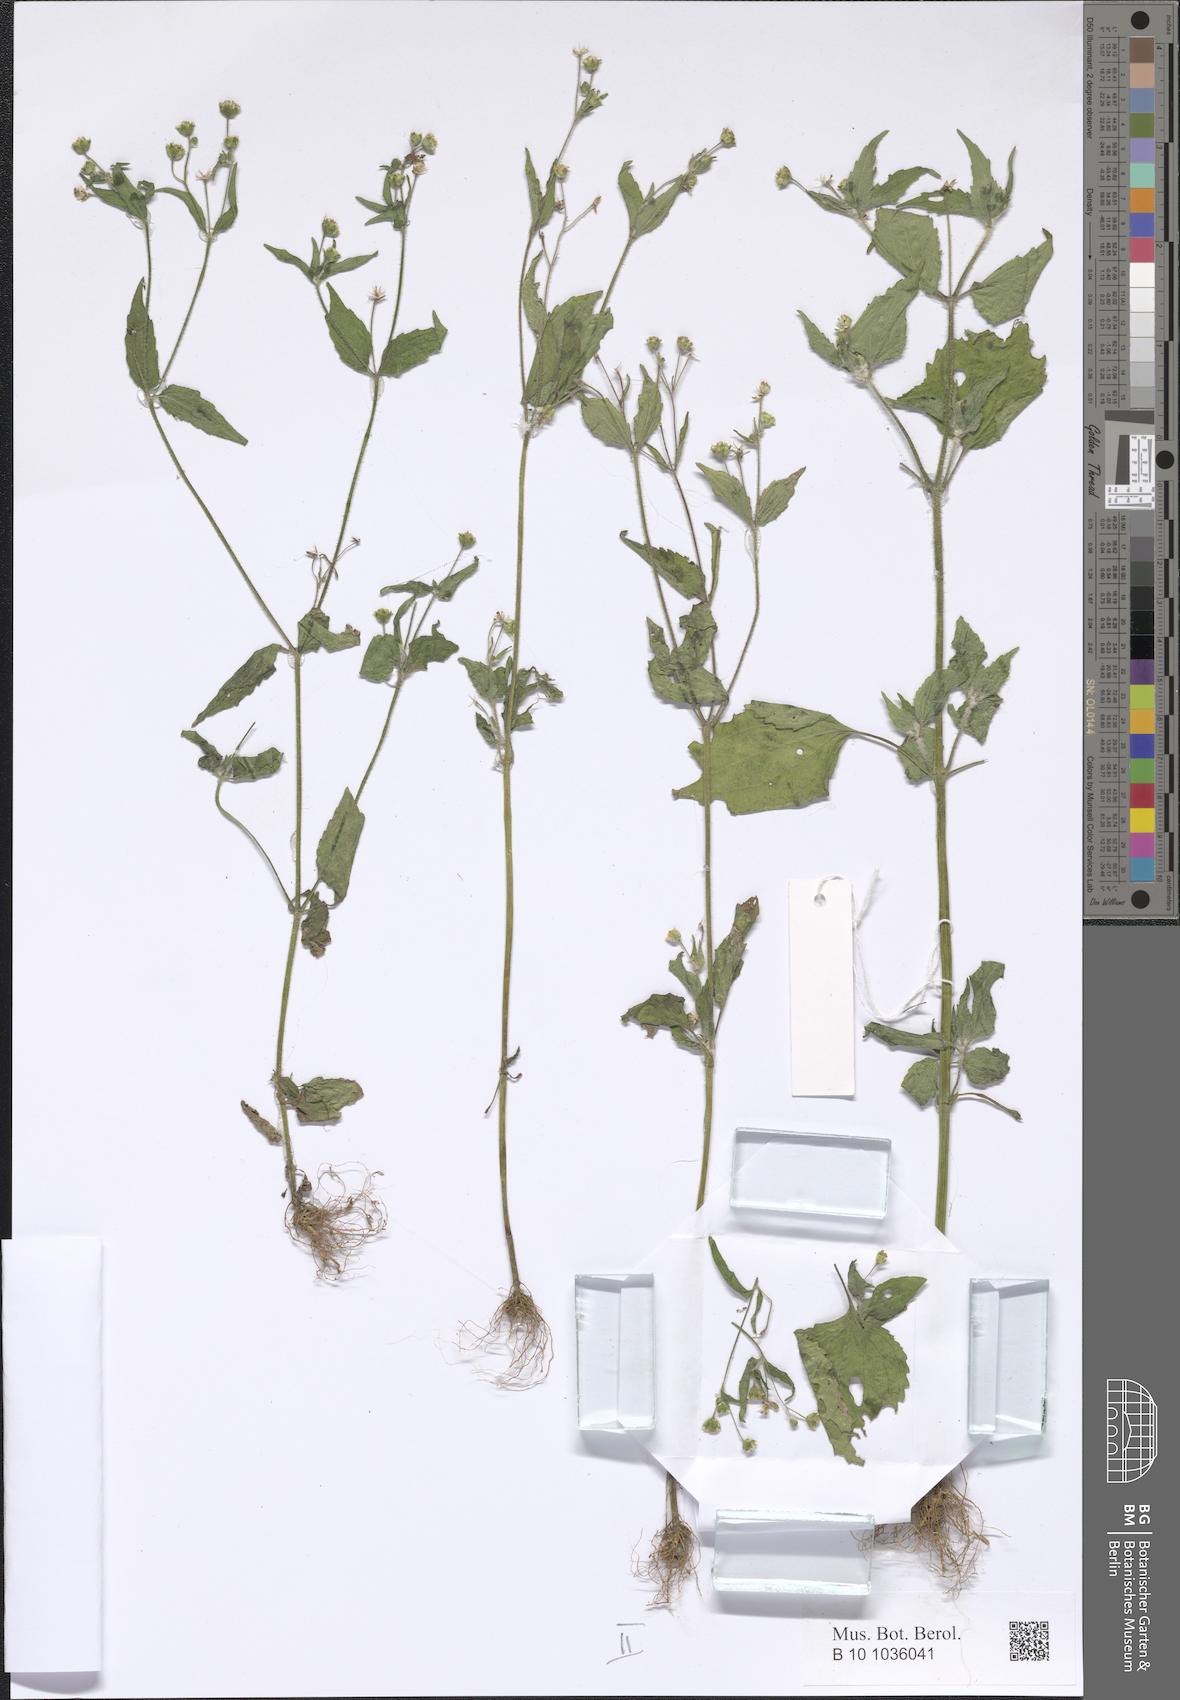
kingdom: Plantae
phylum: Tracheophyta
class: Magnoliopsida
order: Asterales
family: Asteraceae
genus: Galinsoga
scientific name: Galinsoga parviflora
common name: Gallant soldier
